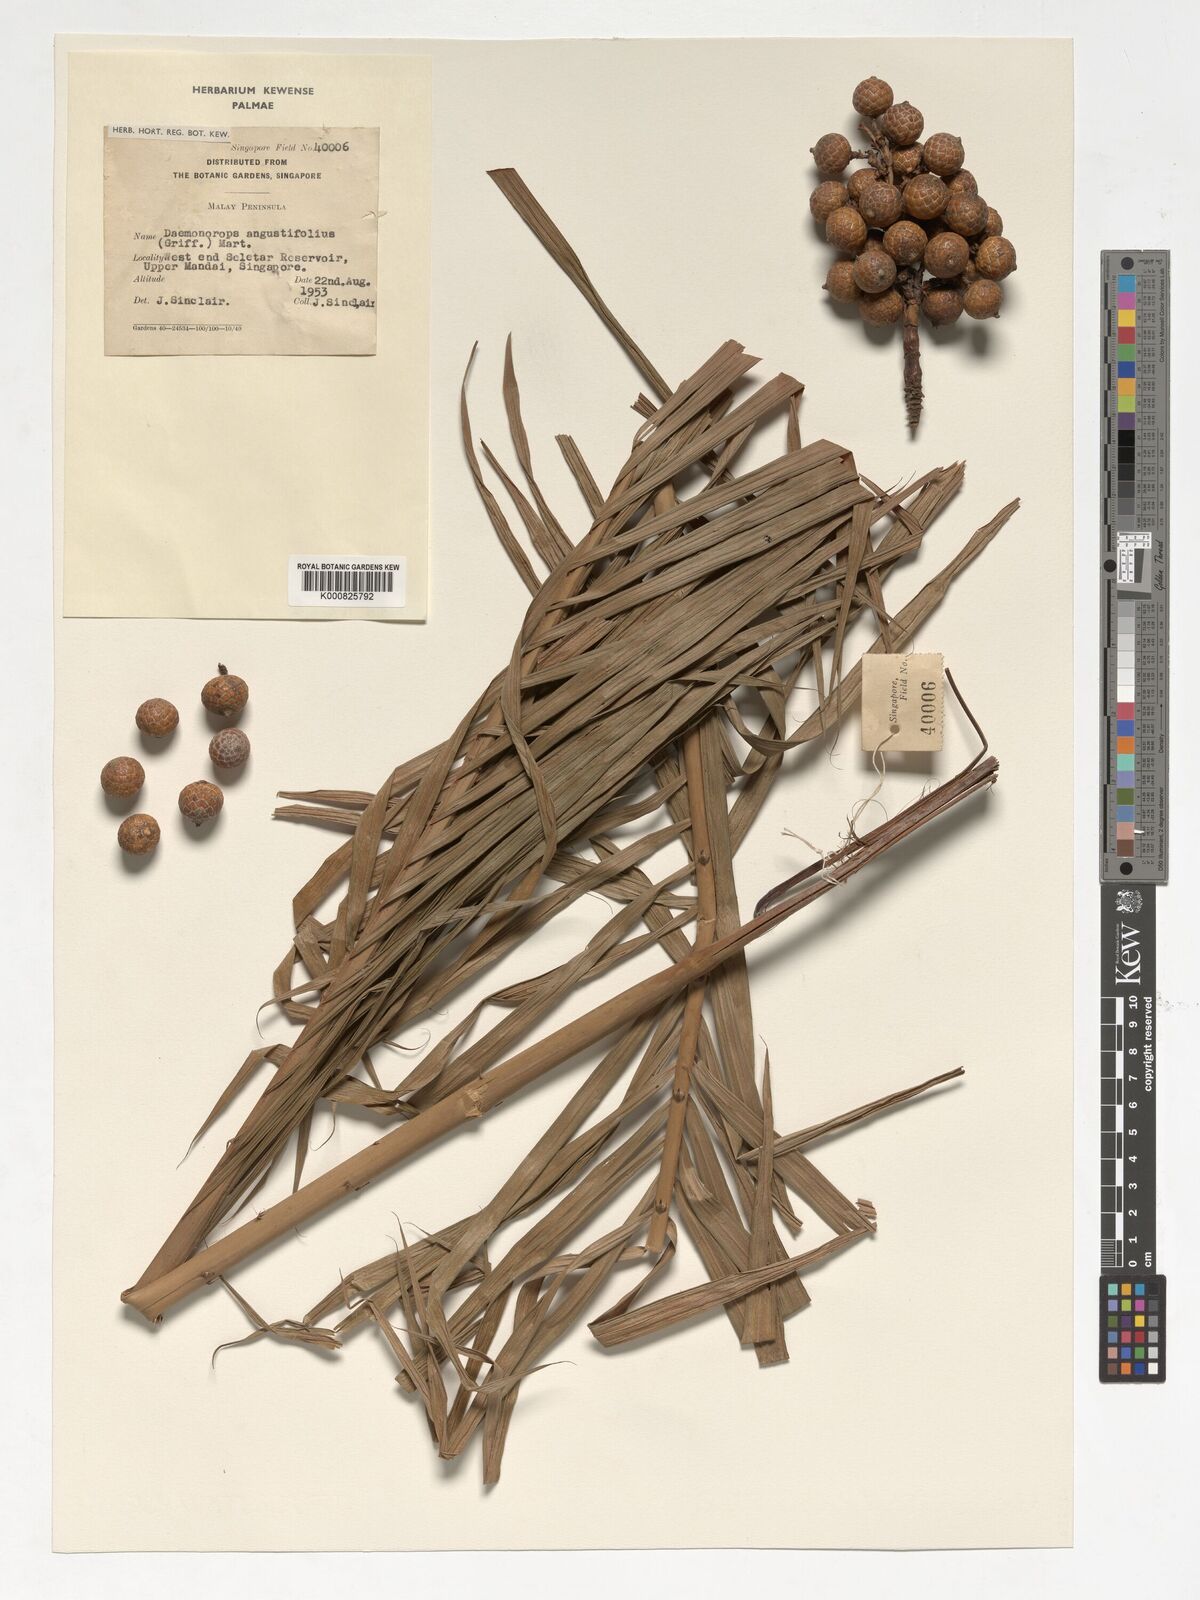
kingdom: Plantae
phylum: Tracheophyta
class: Liliopsida
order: Arecales
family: Arecaceae
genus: Calamus
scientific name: Calamus melanochaetes
